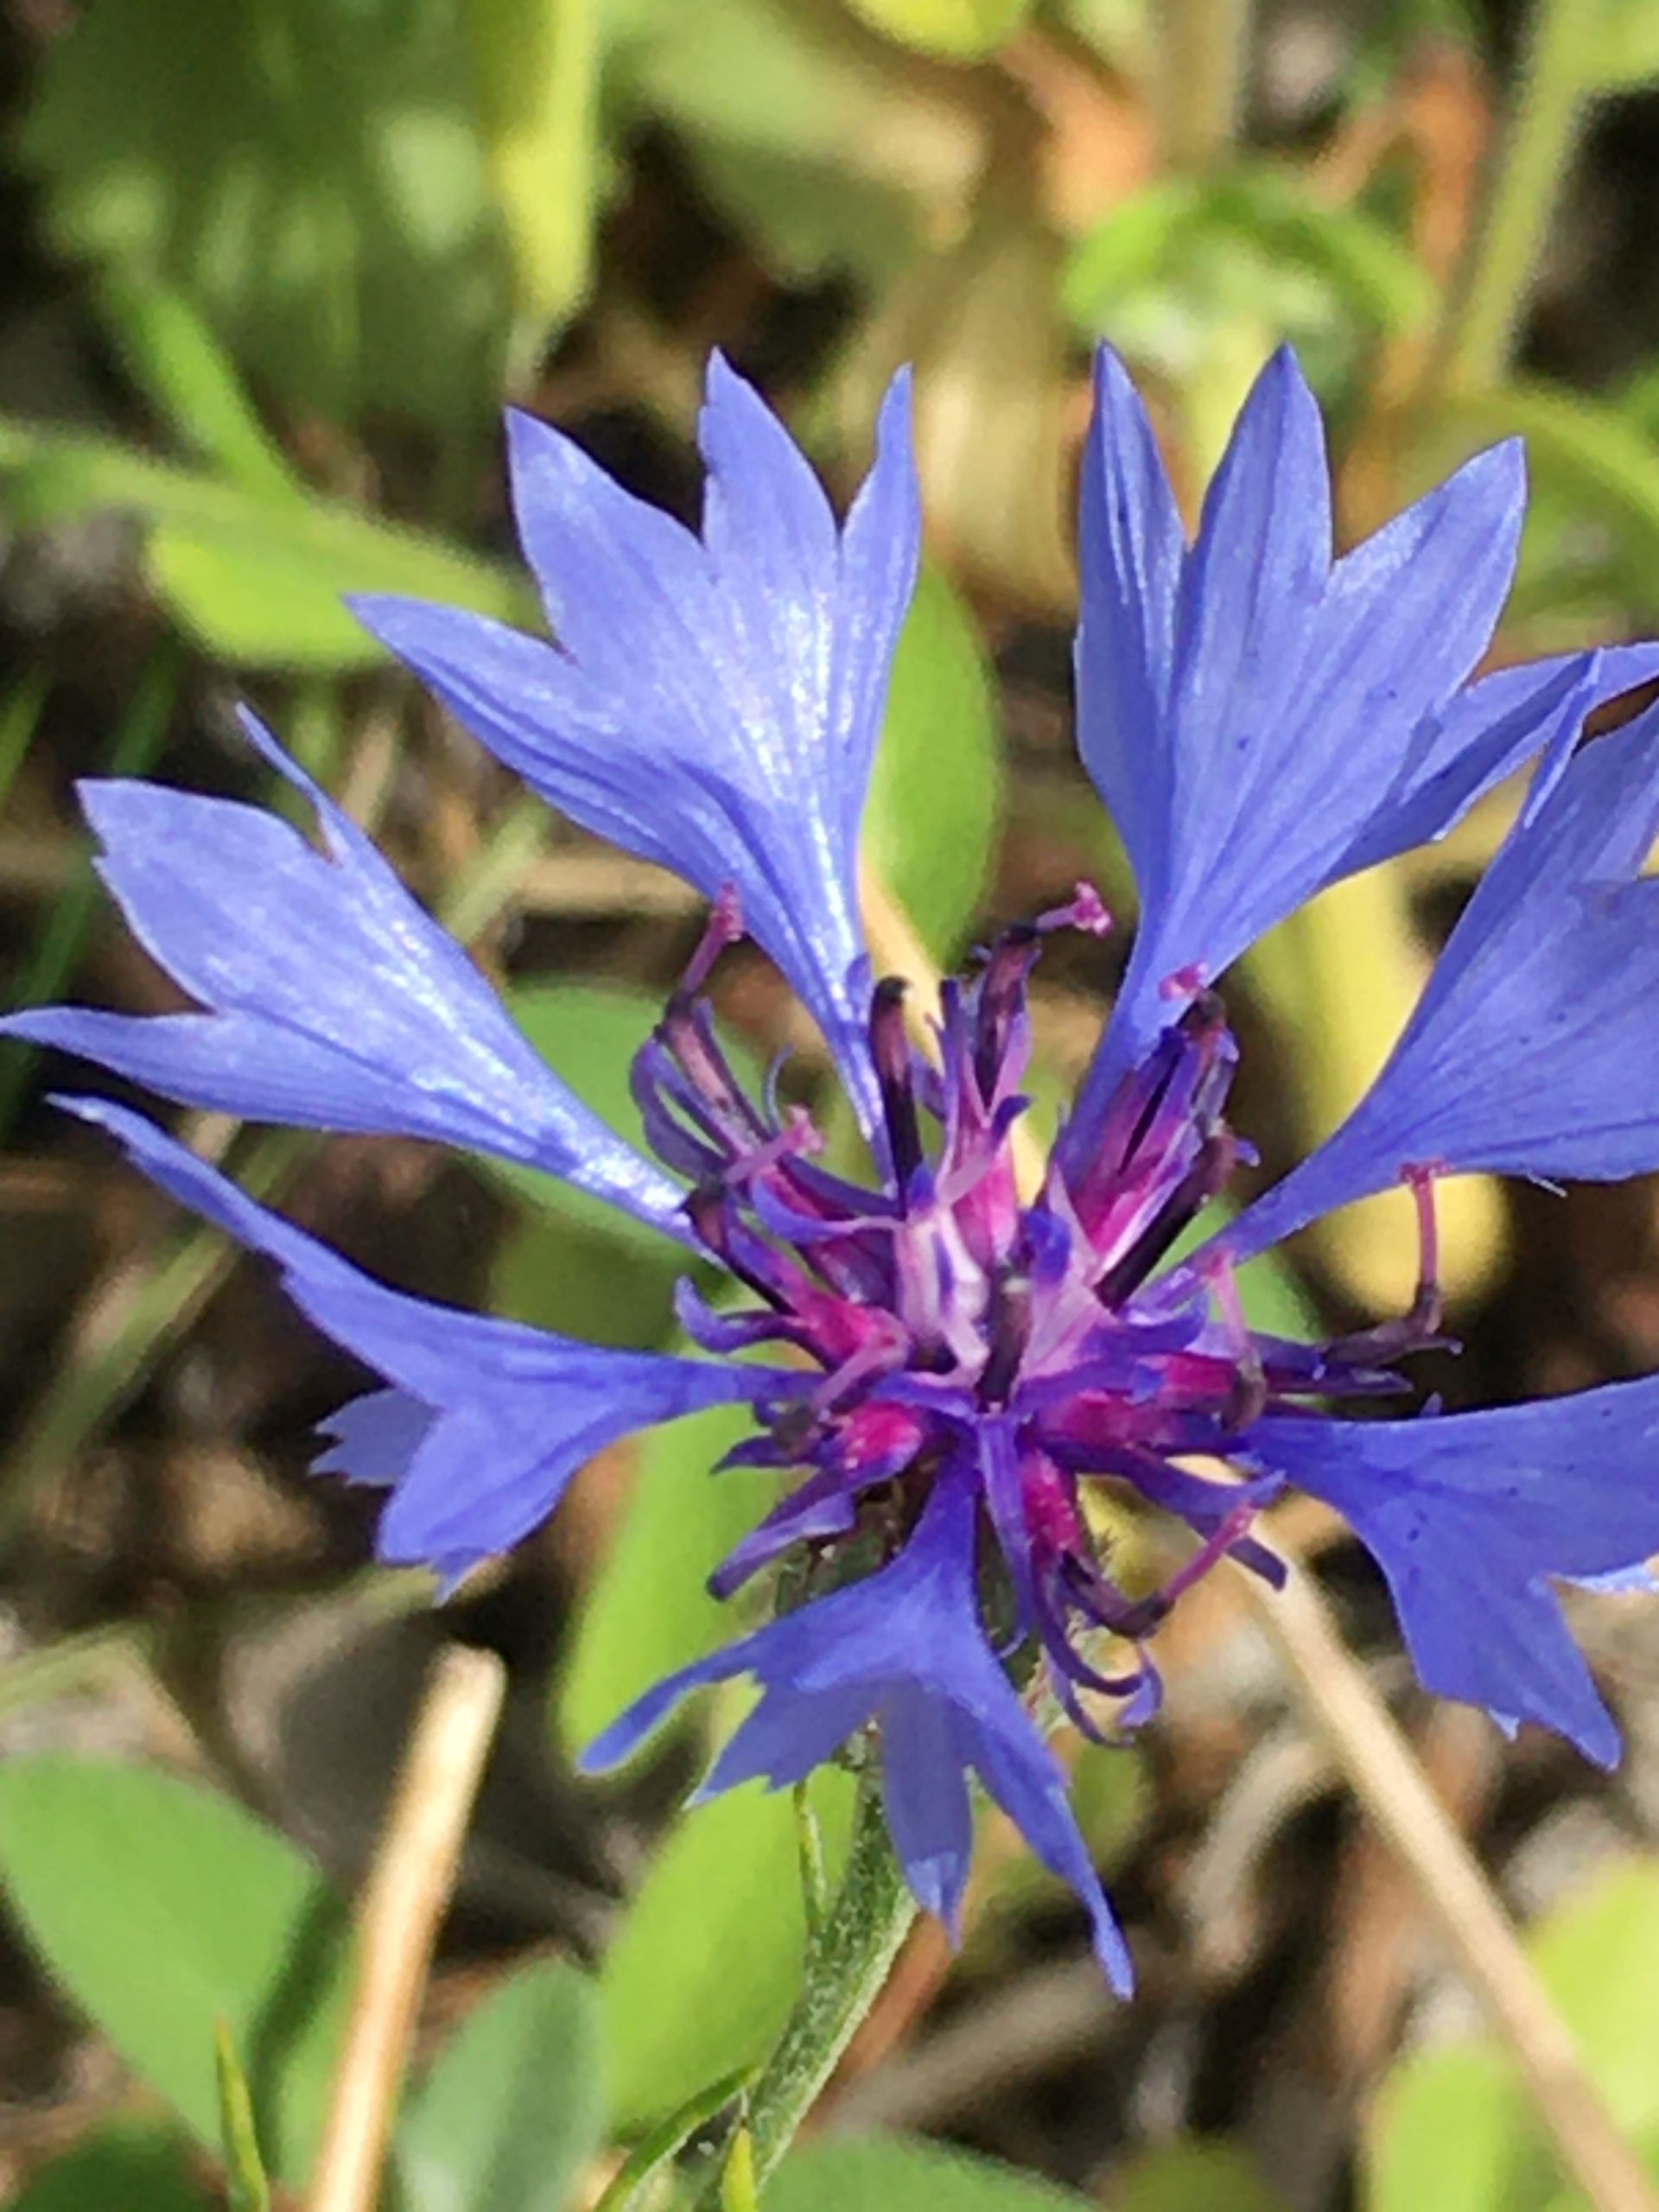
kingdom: Plantae
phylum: Tracheophyta
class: Magnoliopsida
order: Asterales
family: Asteraceae
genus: Centaurea
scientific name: Centaurea cyanus
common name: Kornblomst
